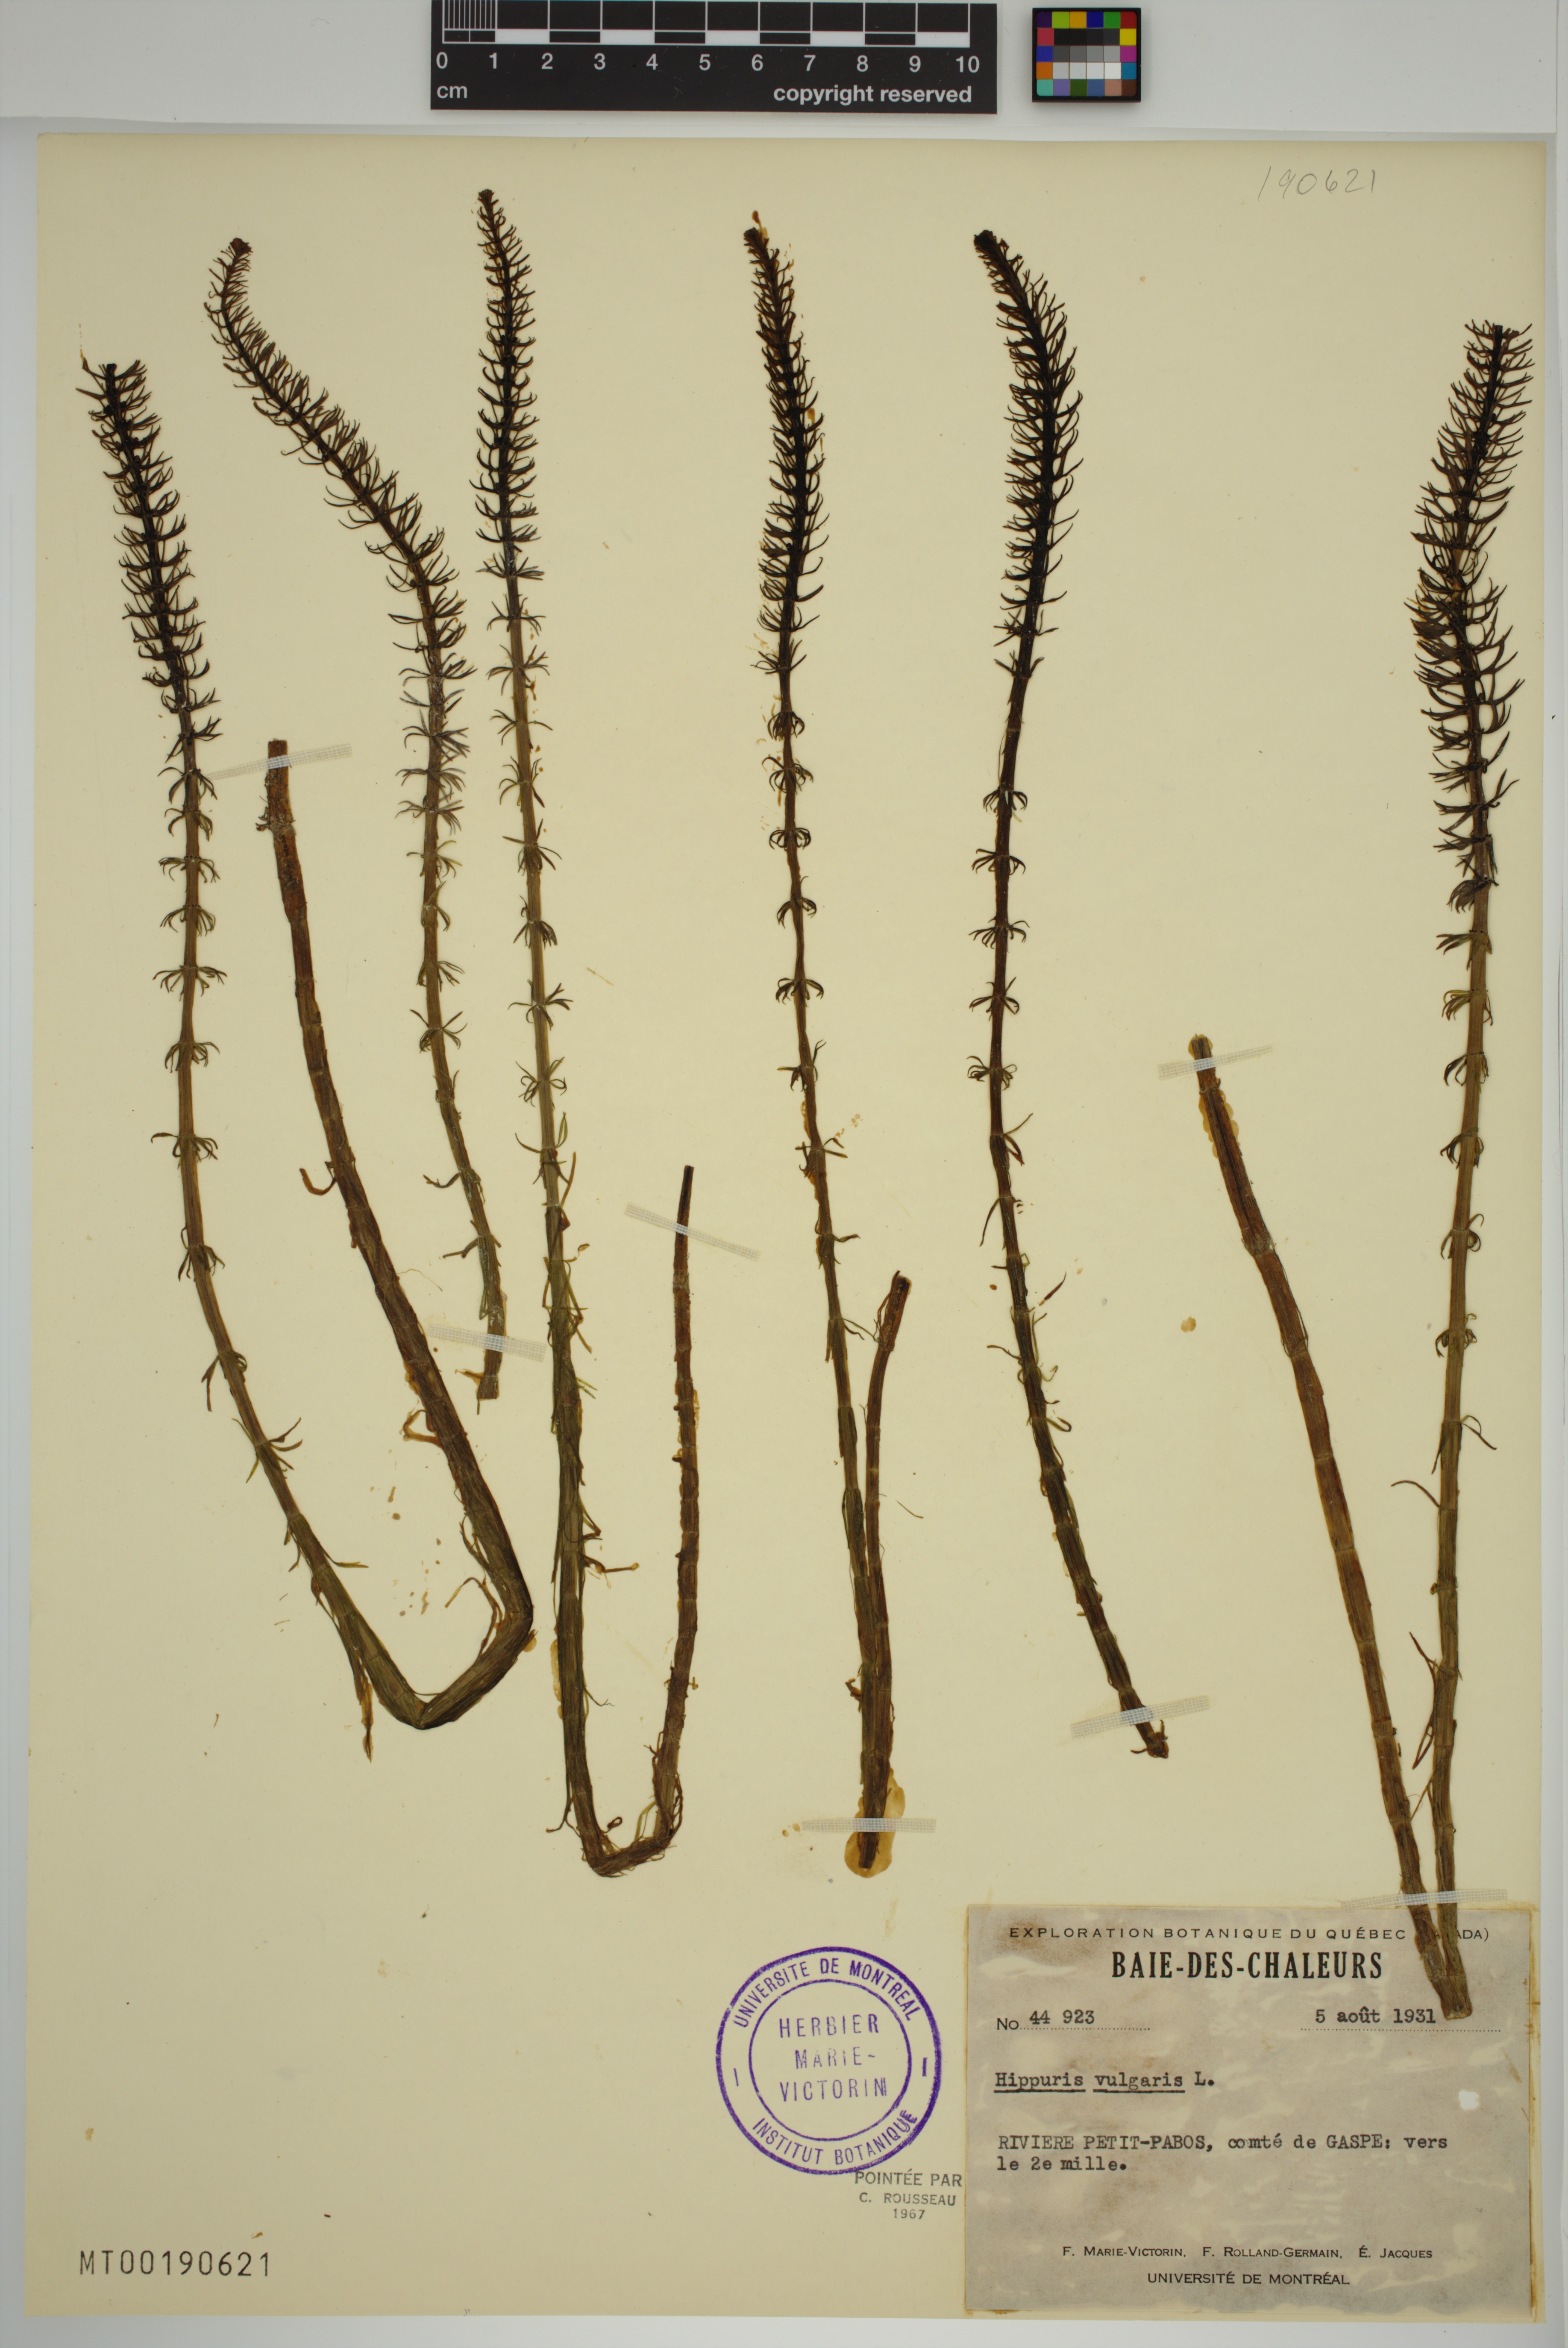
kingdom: Plantae
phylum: Tracheophyta
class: Magnoliopsida
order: Lamiales
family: Plantaginaceae
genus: Hippuris
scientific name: Hippuris vulgaris
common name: Mare's-tail
